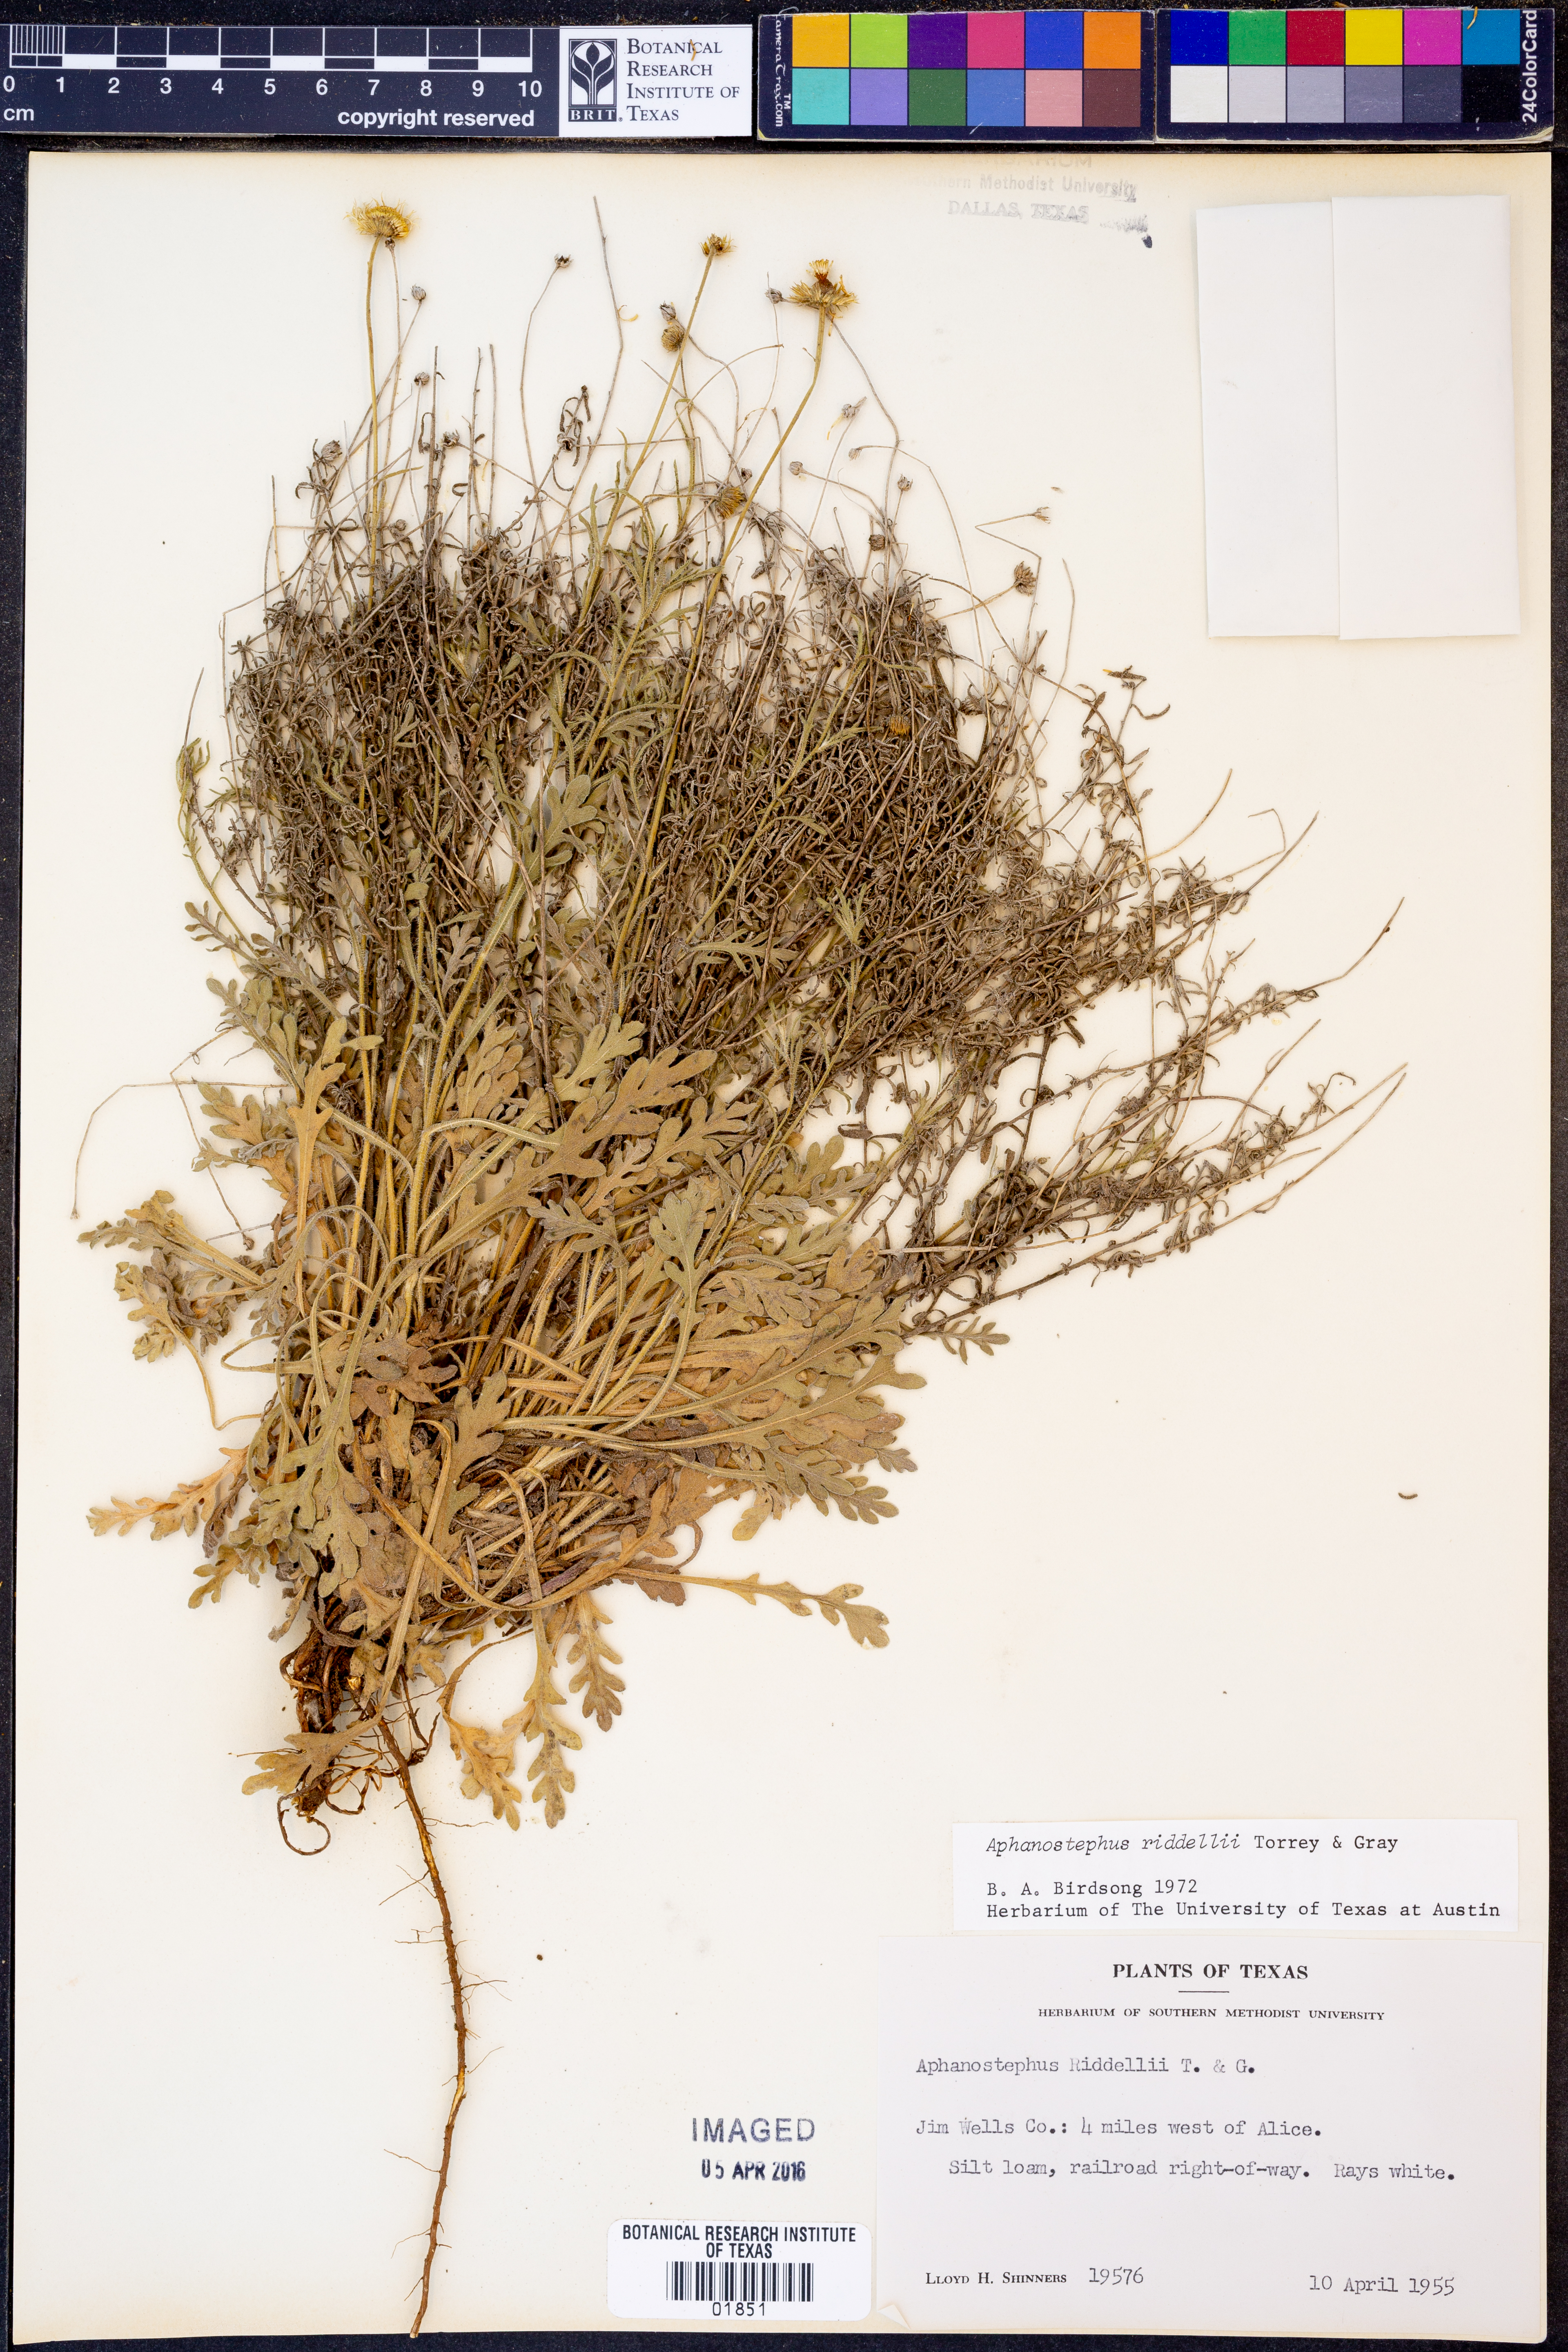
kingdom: Plantae
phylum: Tracheophyta
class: Magnoliopsida
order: Asterales
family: Asteraceae
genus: Aphanostephus
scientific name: Aphanostephus riddellii
